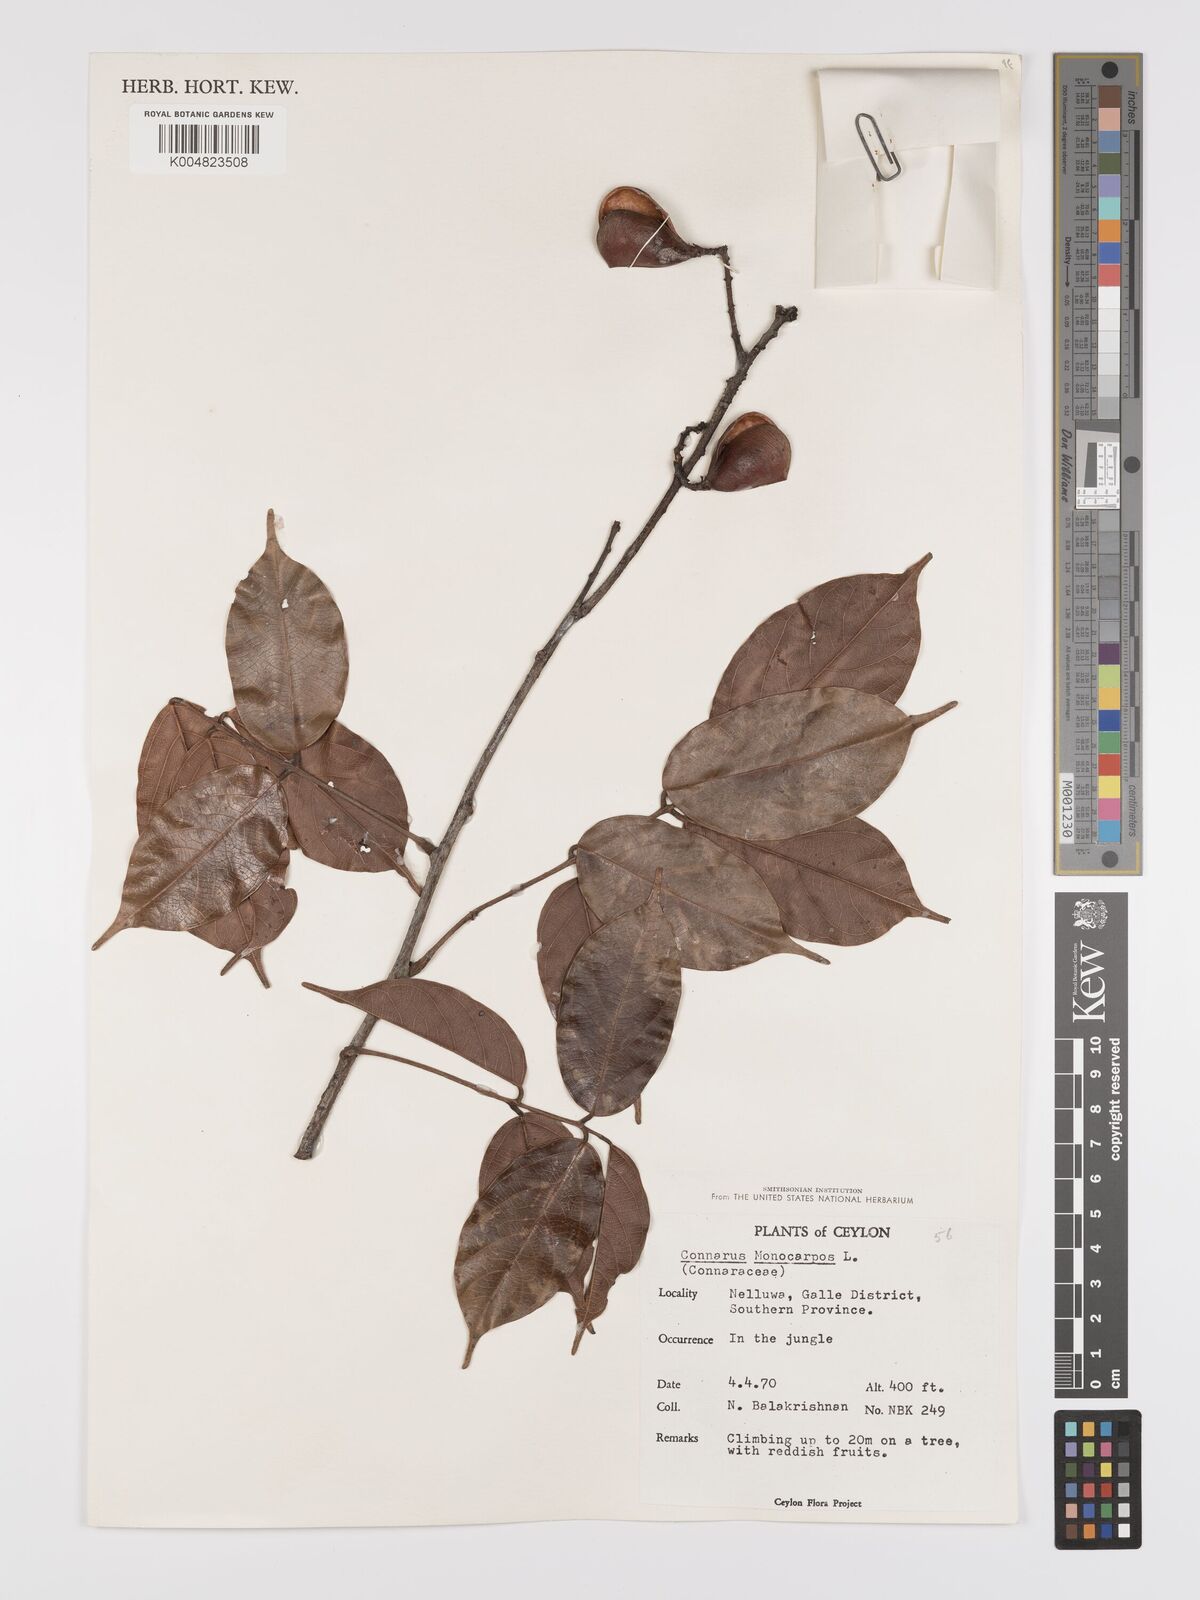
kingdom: Plantae
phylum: Tracheophyta
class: Magnoliopsida
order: Oxalidales
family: Connaraceae
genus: Connarus
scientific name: Connarus semidecandrus
